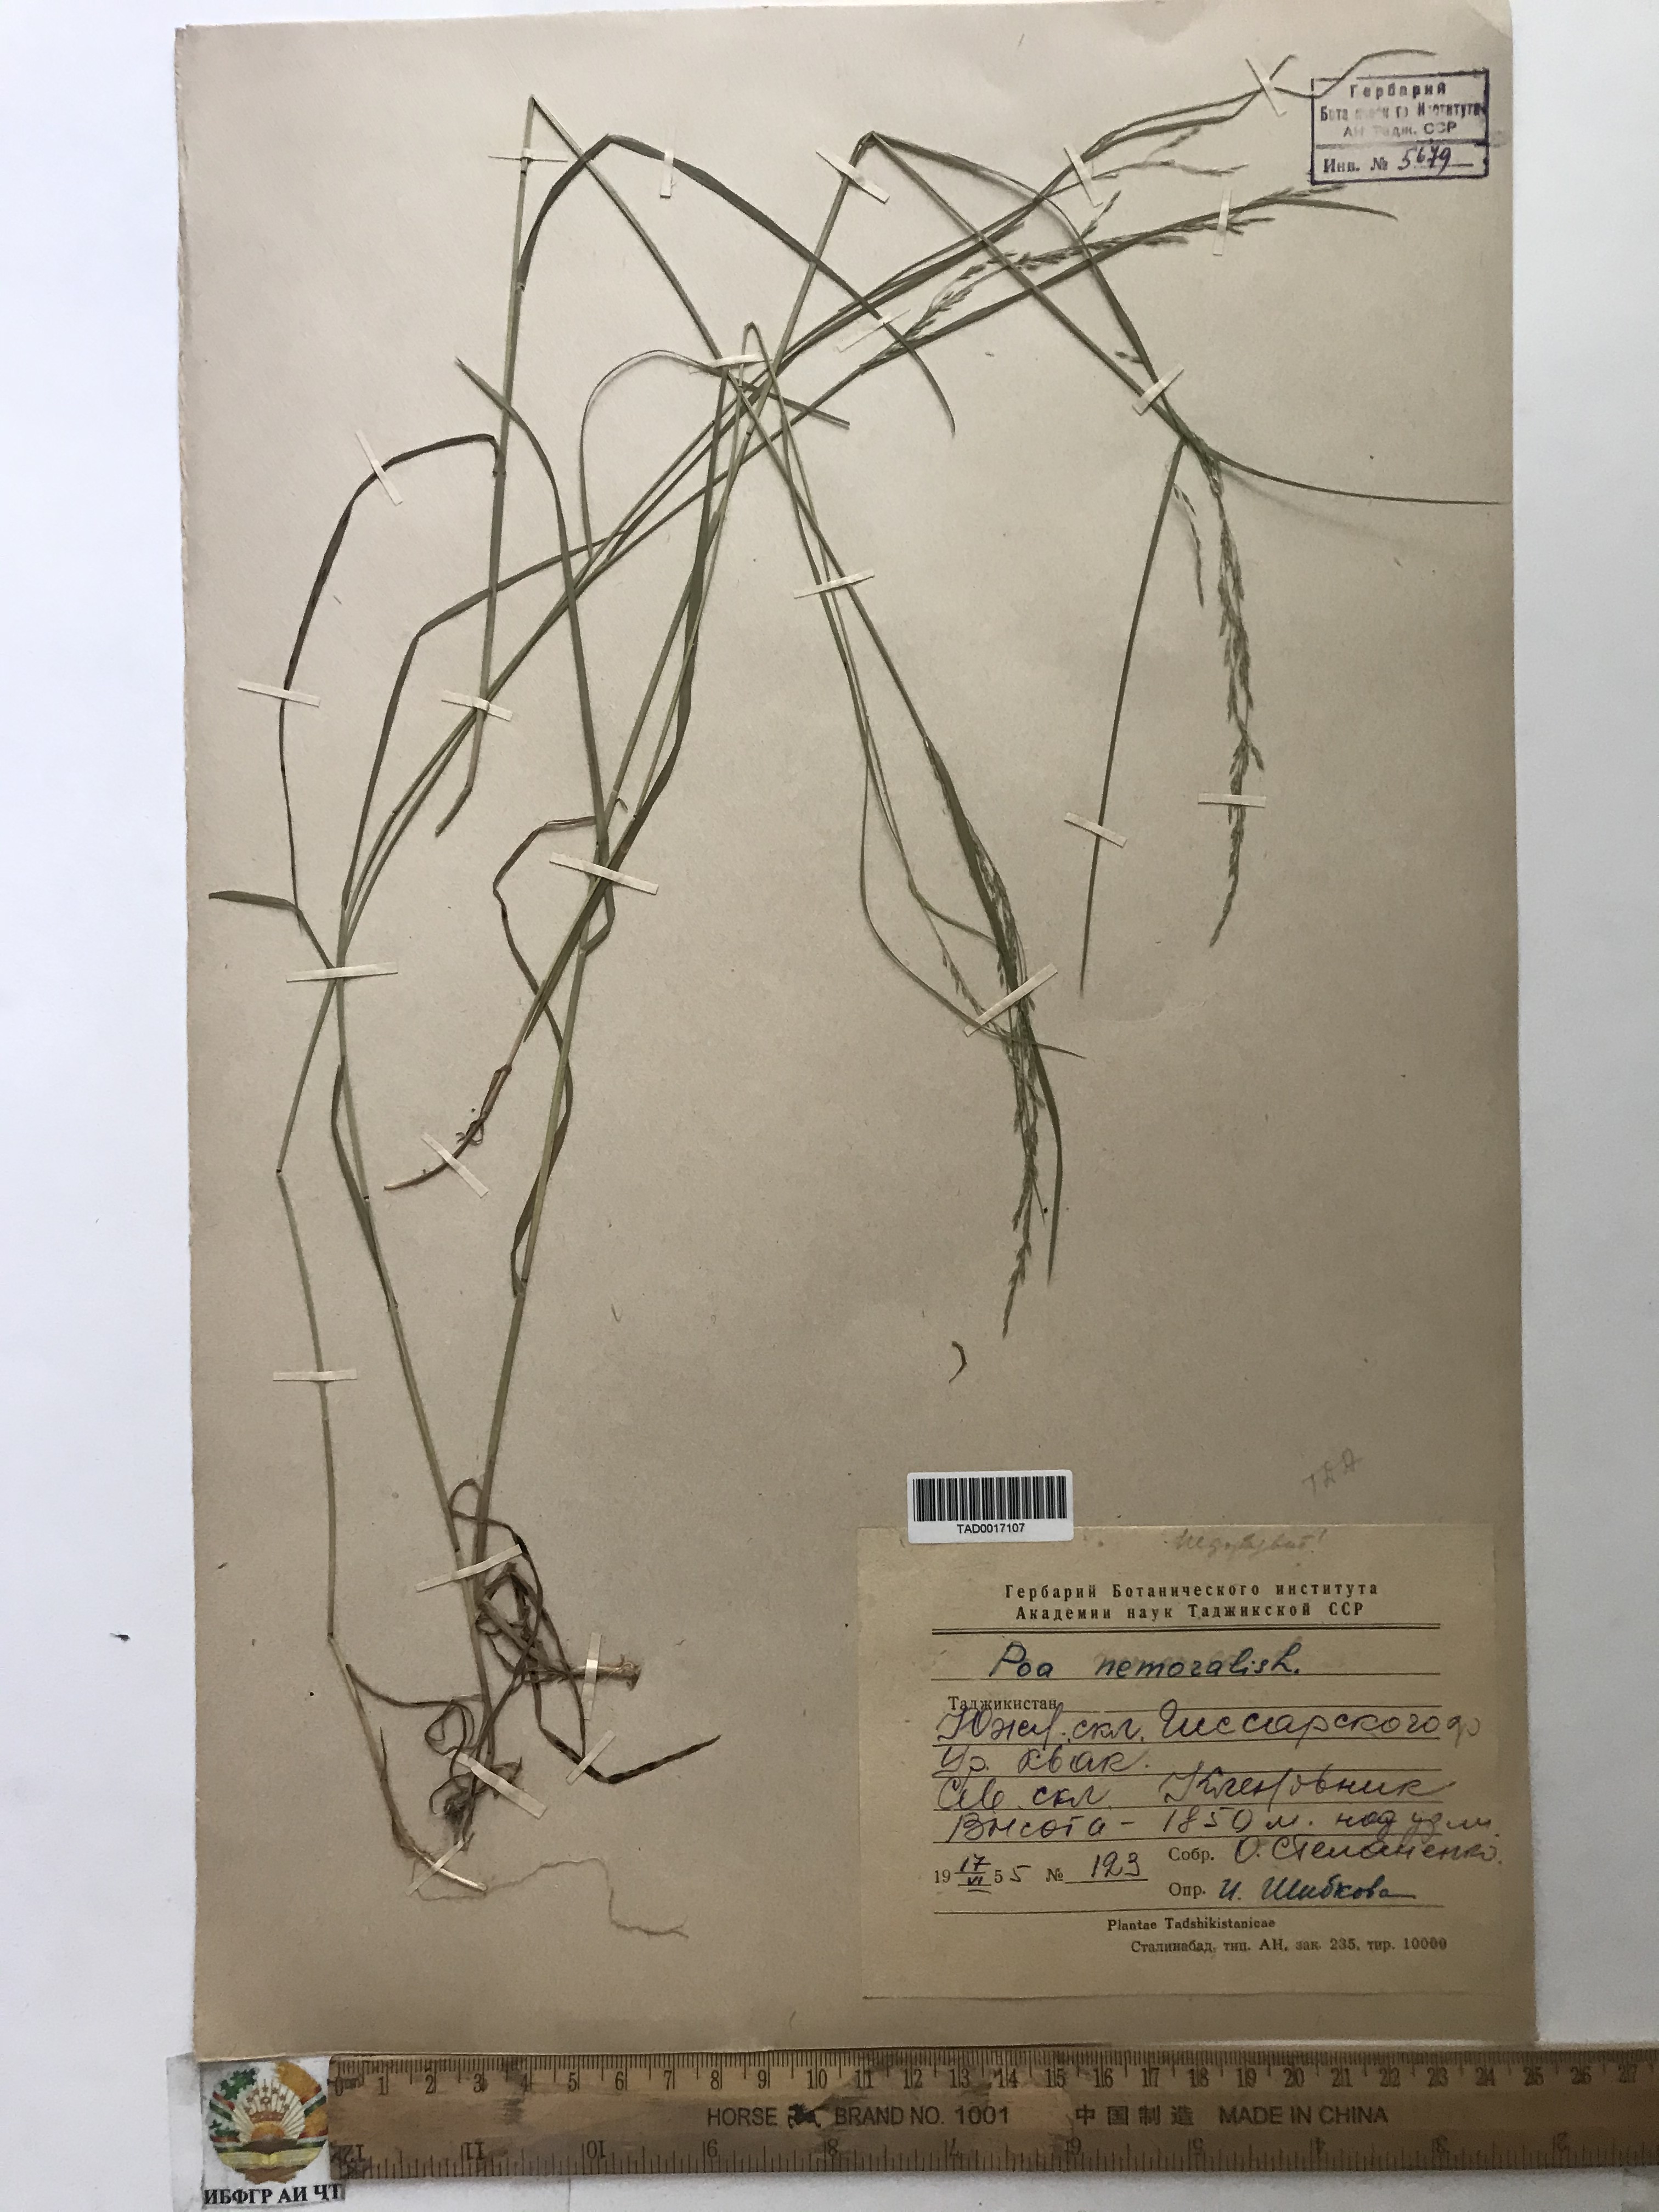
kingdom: Plantae
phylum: Tracheophyta
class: Liliopsida
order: Poales
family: Poaceae
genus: Poa
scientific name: Poa nemoralis
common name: Wood bluegrass
